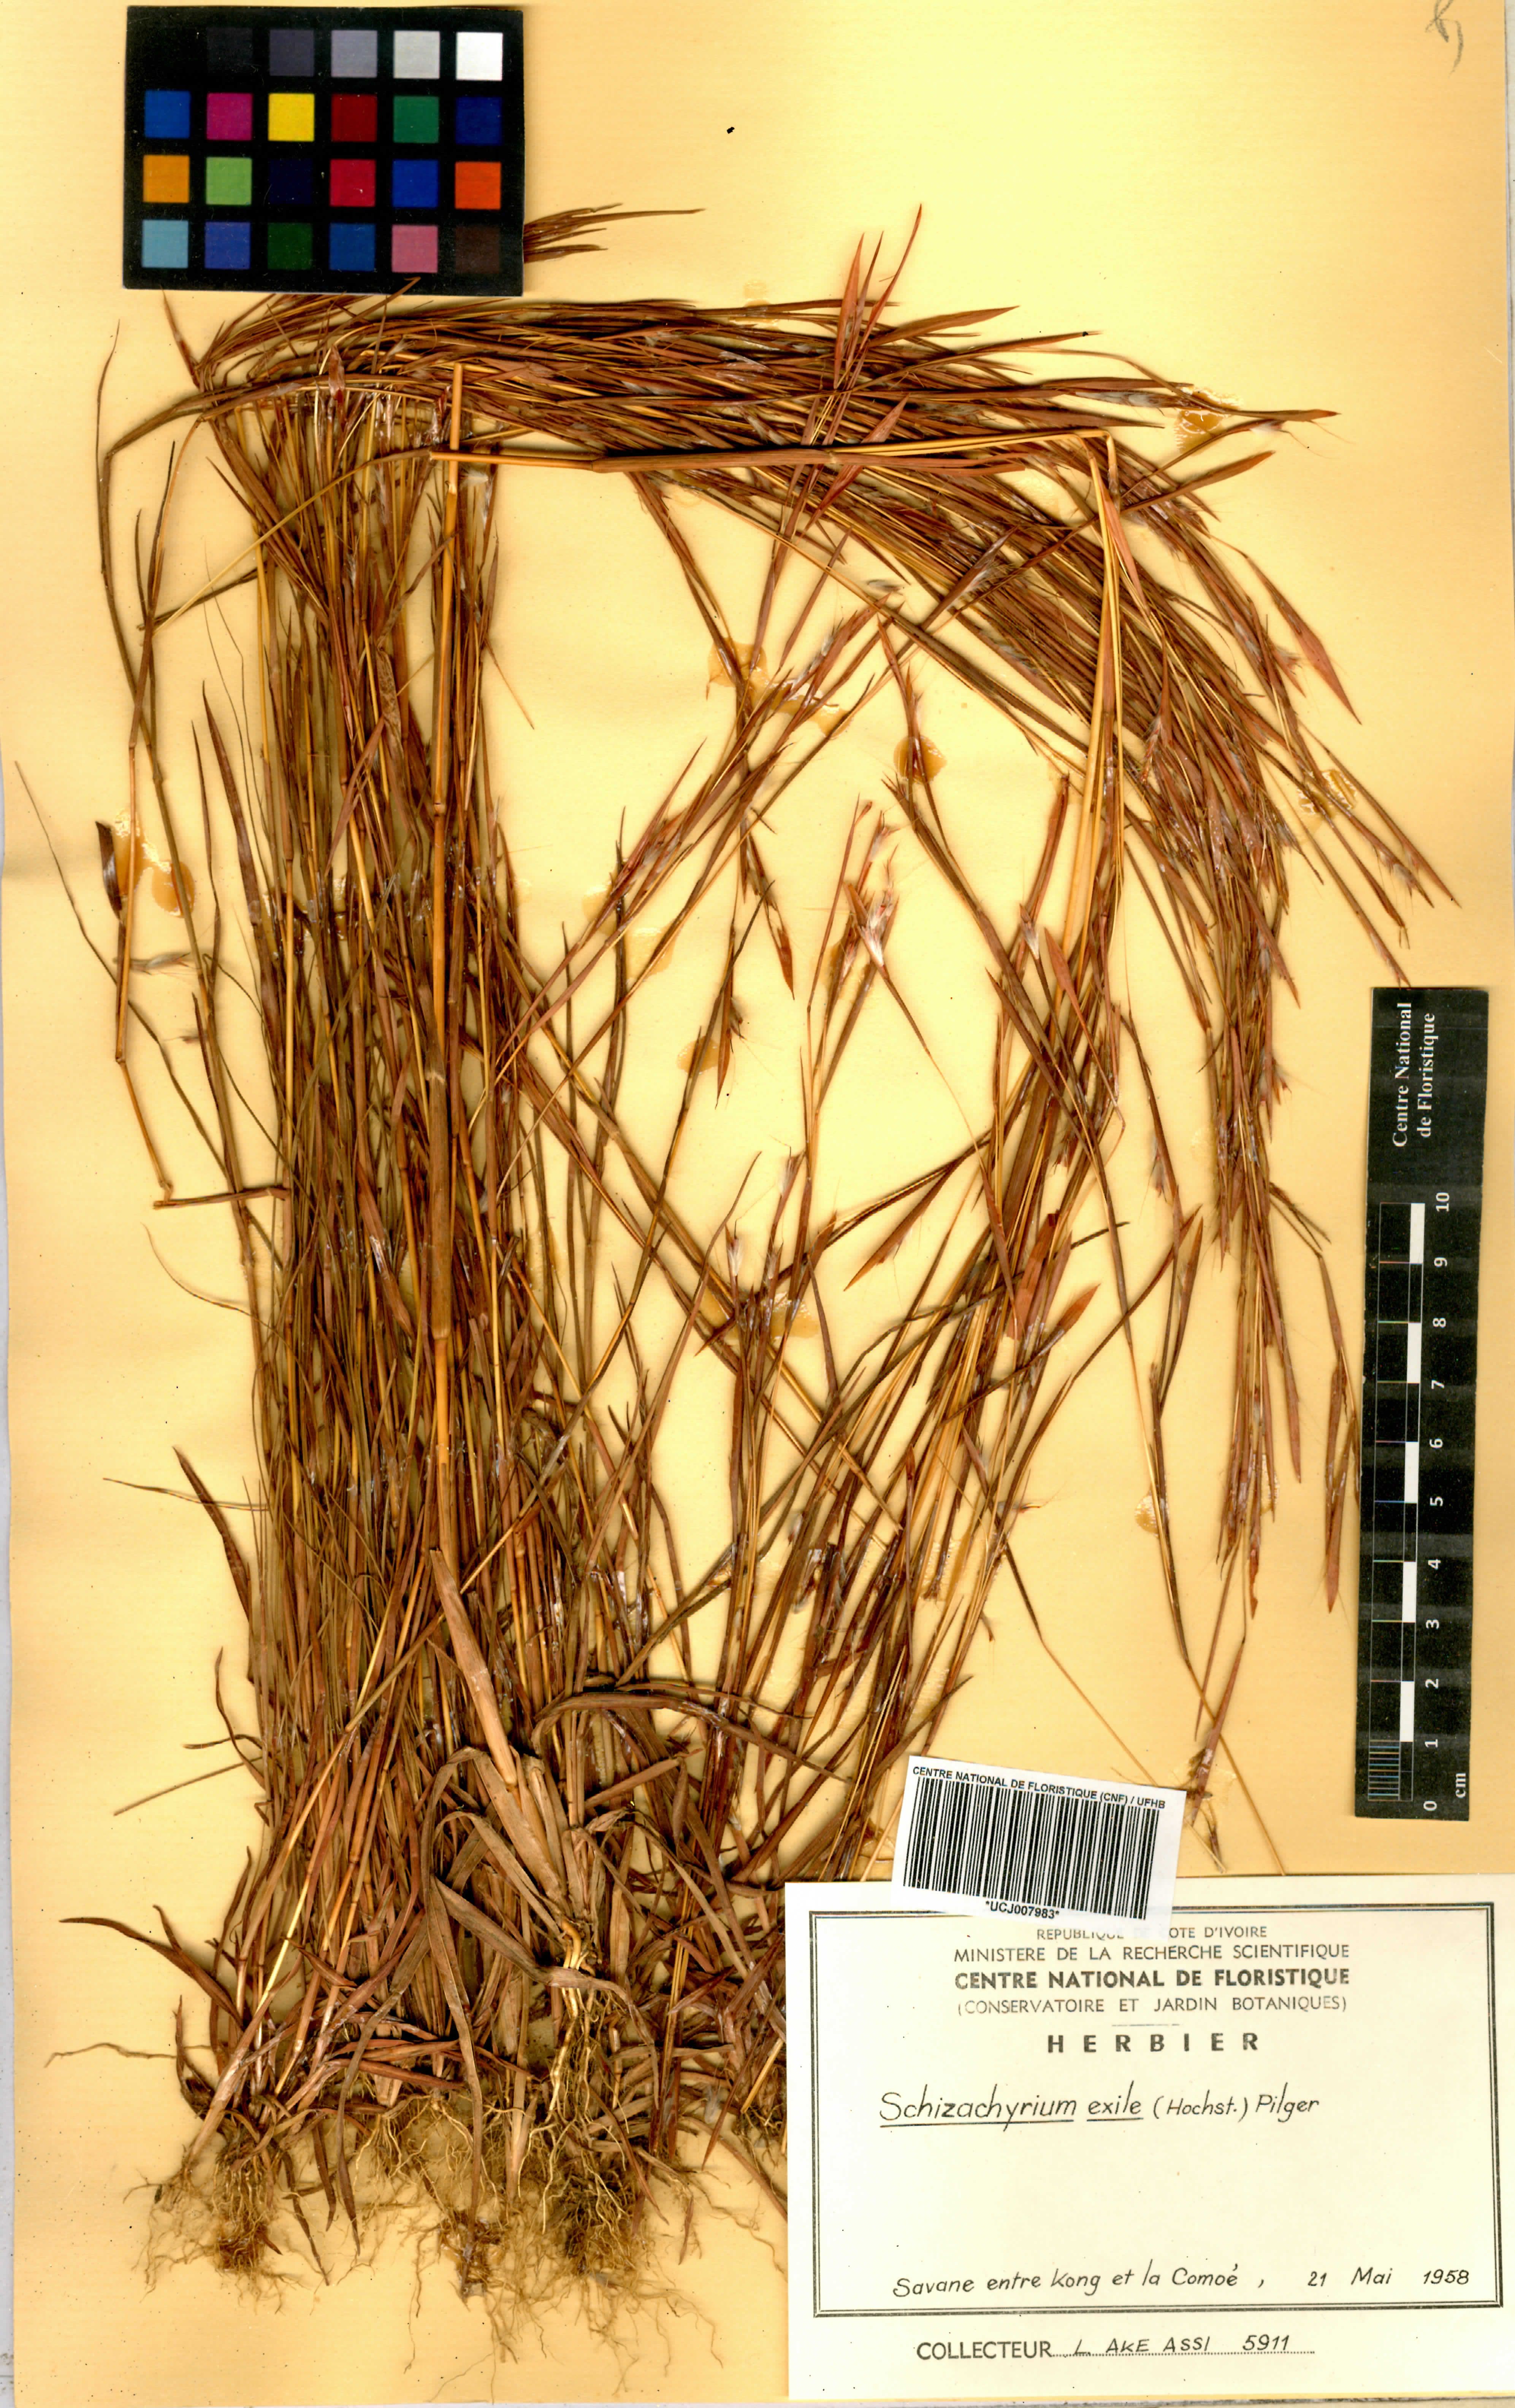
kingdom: Plantae
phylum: Tracheophyta
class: Liliopsida
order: Poales
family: Poaceae
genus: Schizachyrium
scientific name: Schizachyrium exile
